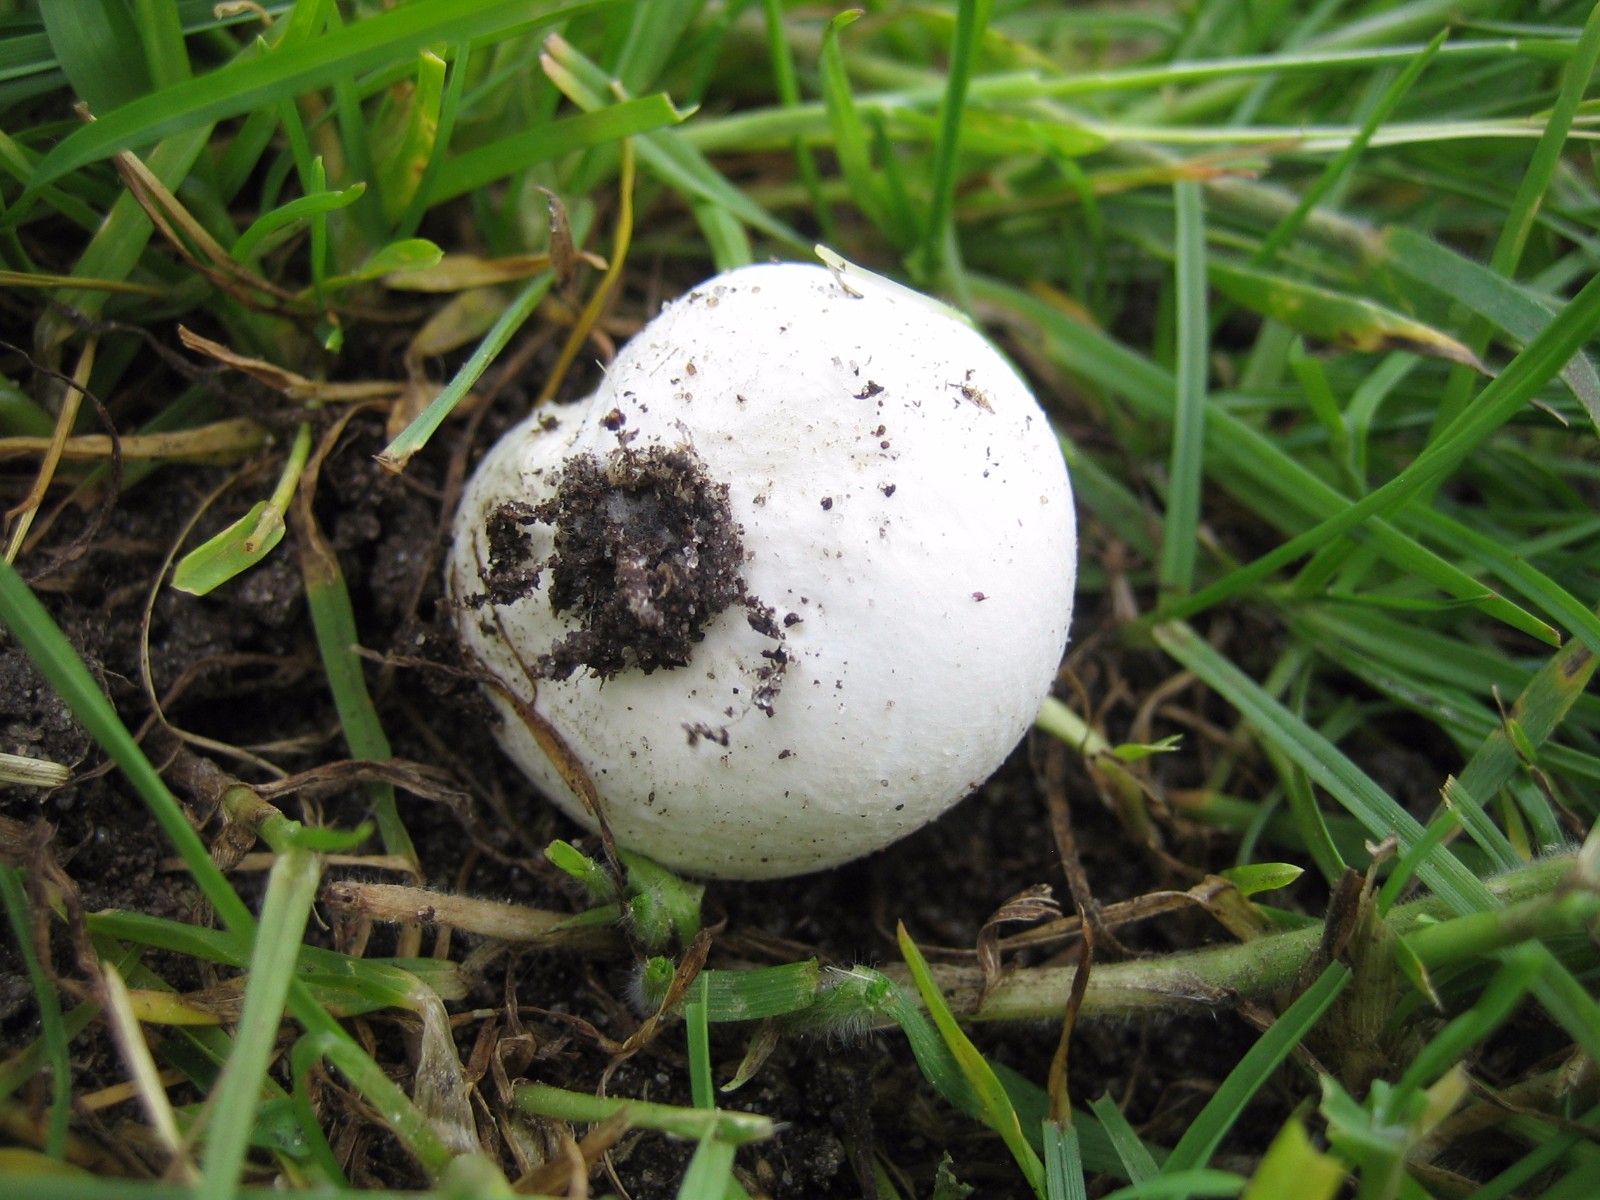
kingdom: Fungi
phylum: Basidiomycota
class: Agaricomycetes
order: Agaricales
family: Lycoperdaceae
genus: Bovista
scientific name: Bovista
